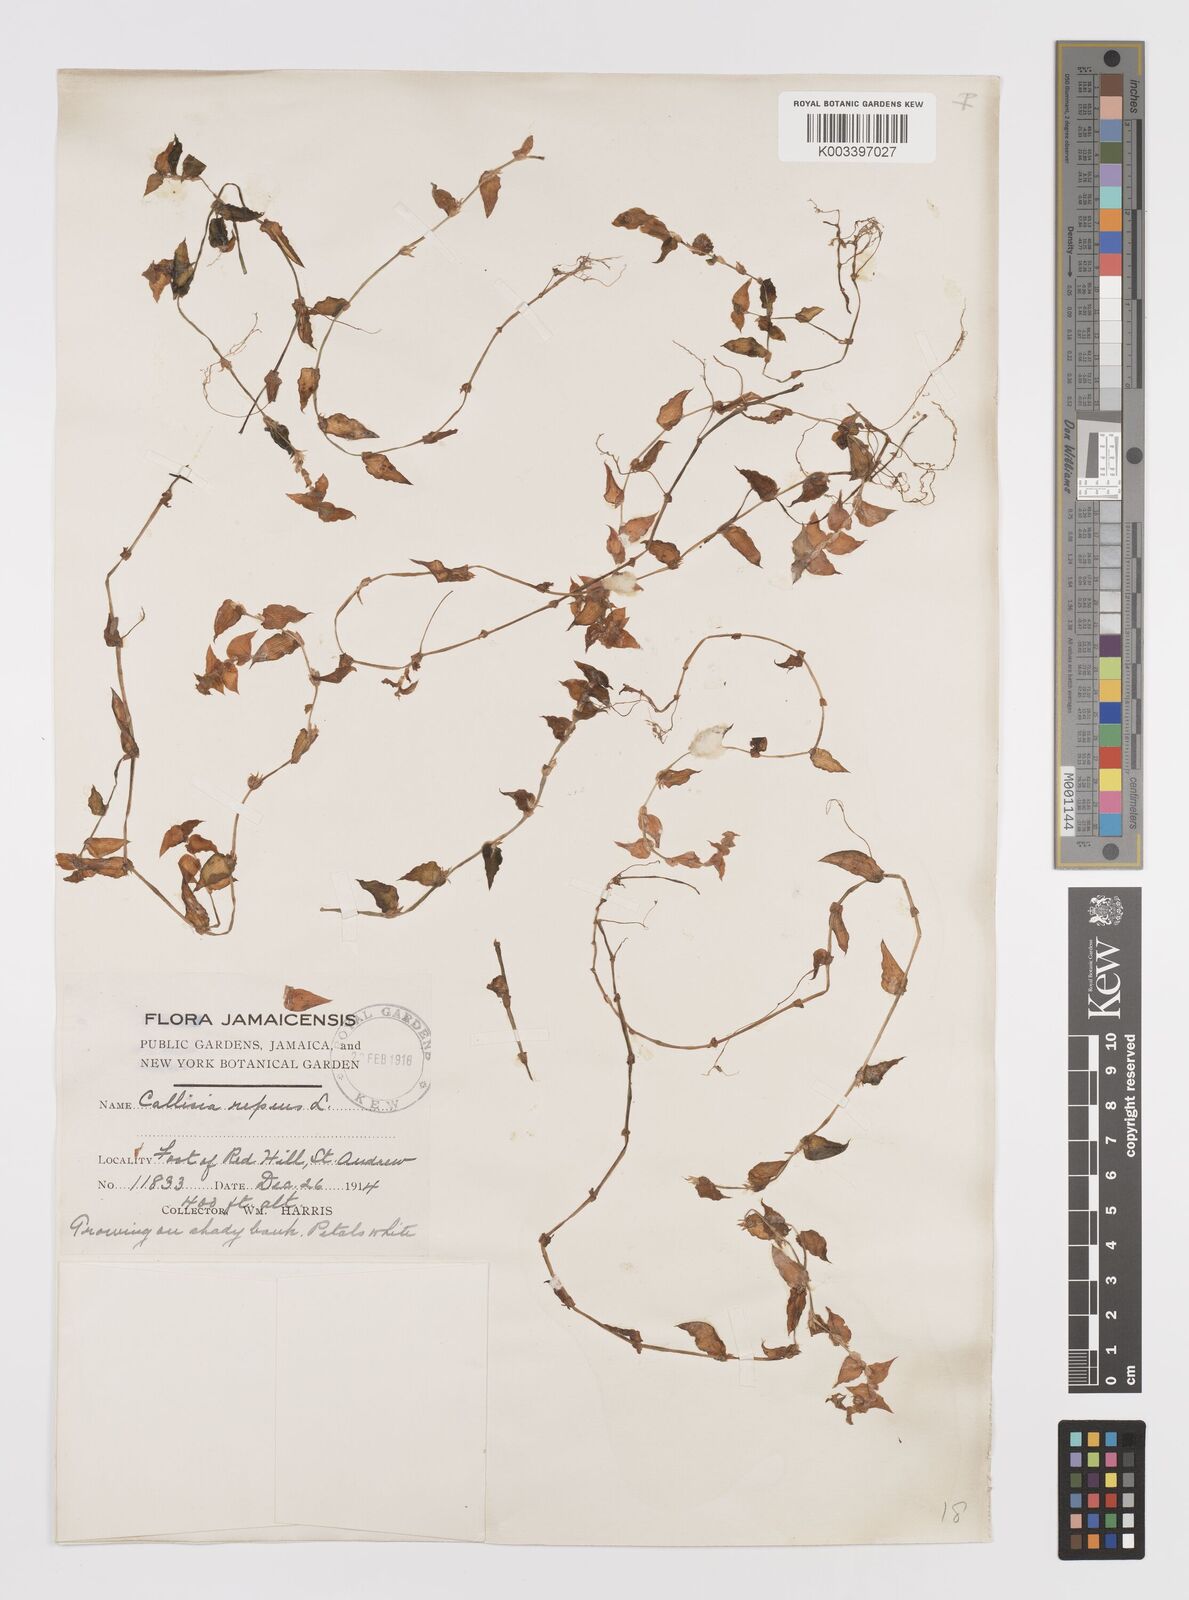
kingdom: Plantae
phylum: Tracheophyta
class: Liliopsida
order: Commelinales
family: Commelinaceae
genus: Callisia
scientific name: Callisia repens
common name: Creeping inchplant
